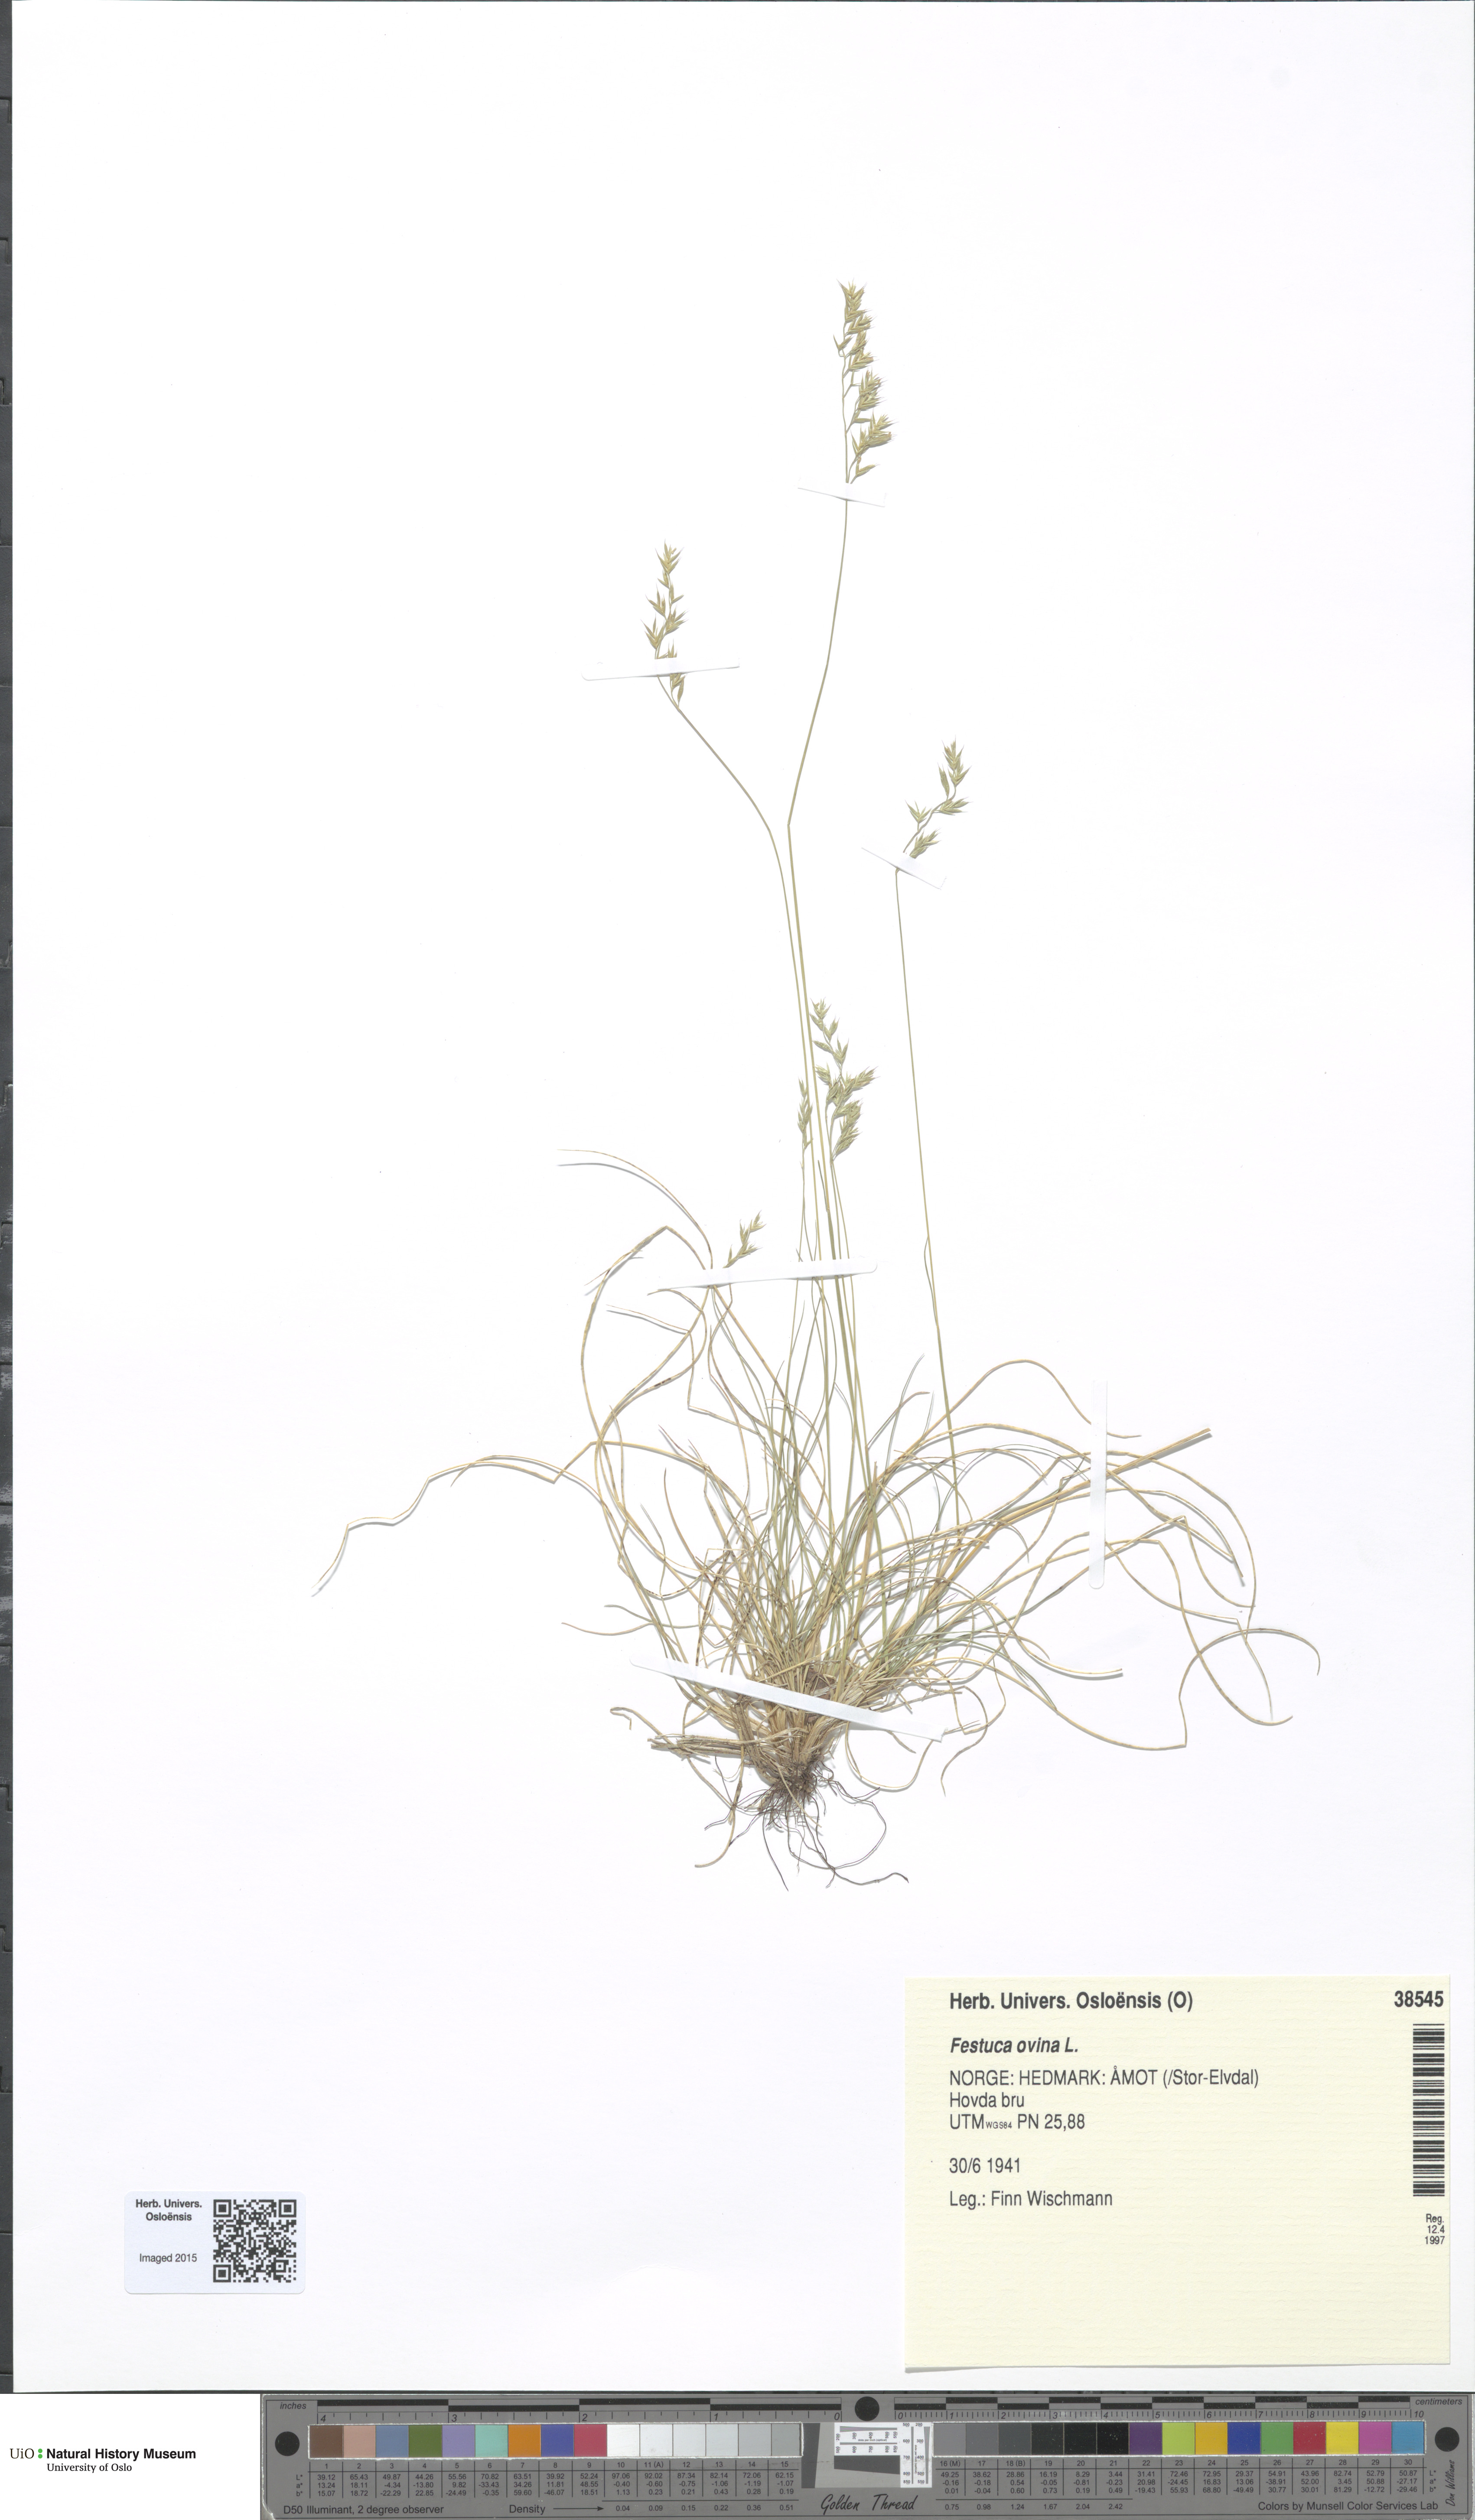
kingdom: Plantae
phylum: Tracheophyta
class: Liliopsida
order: Poales
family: Poaceae
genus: Festuca
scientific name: Festuca ovina
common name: Sheep fescue
